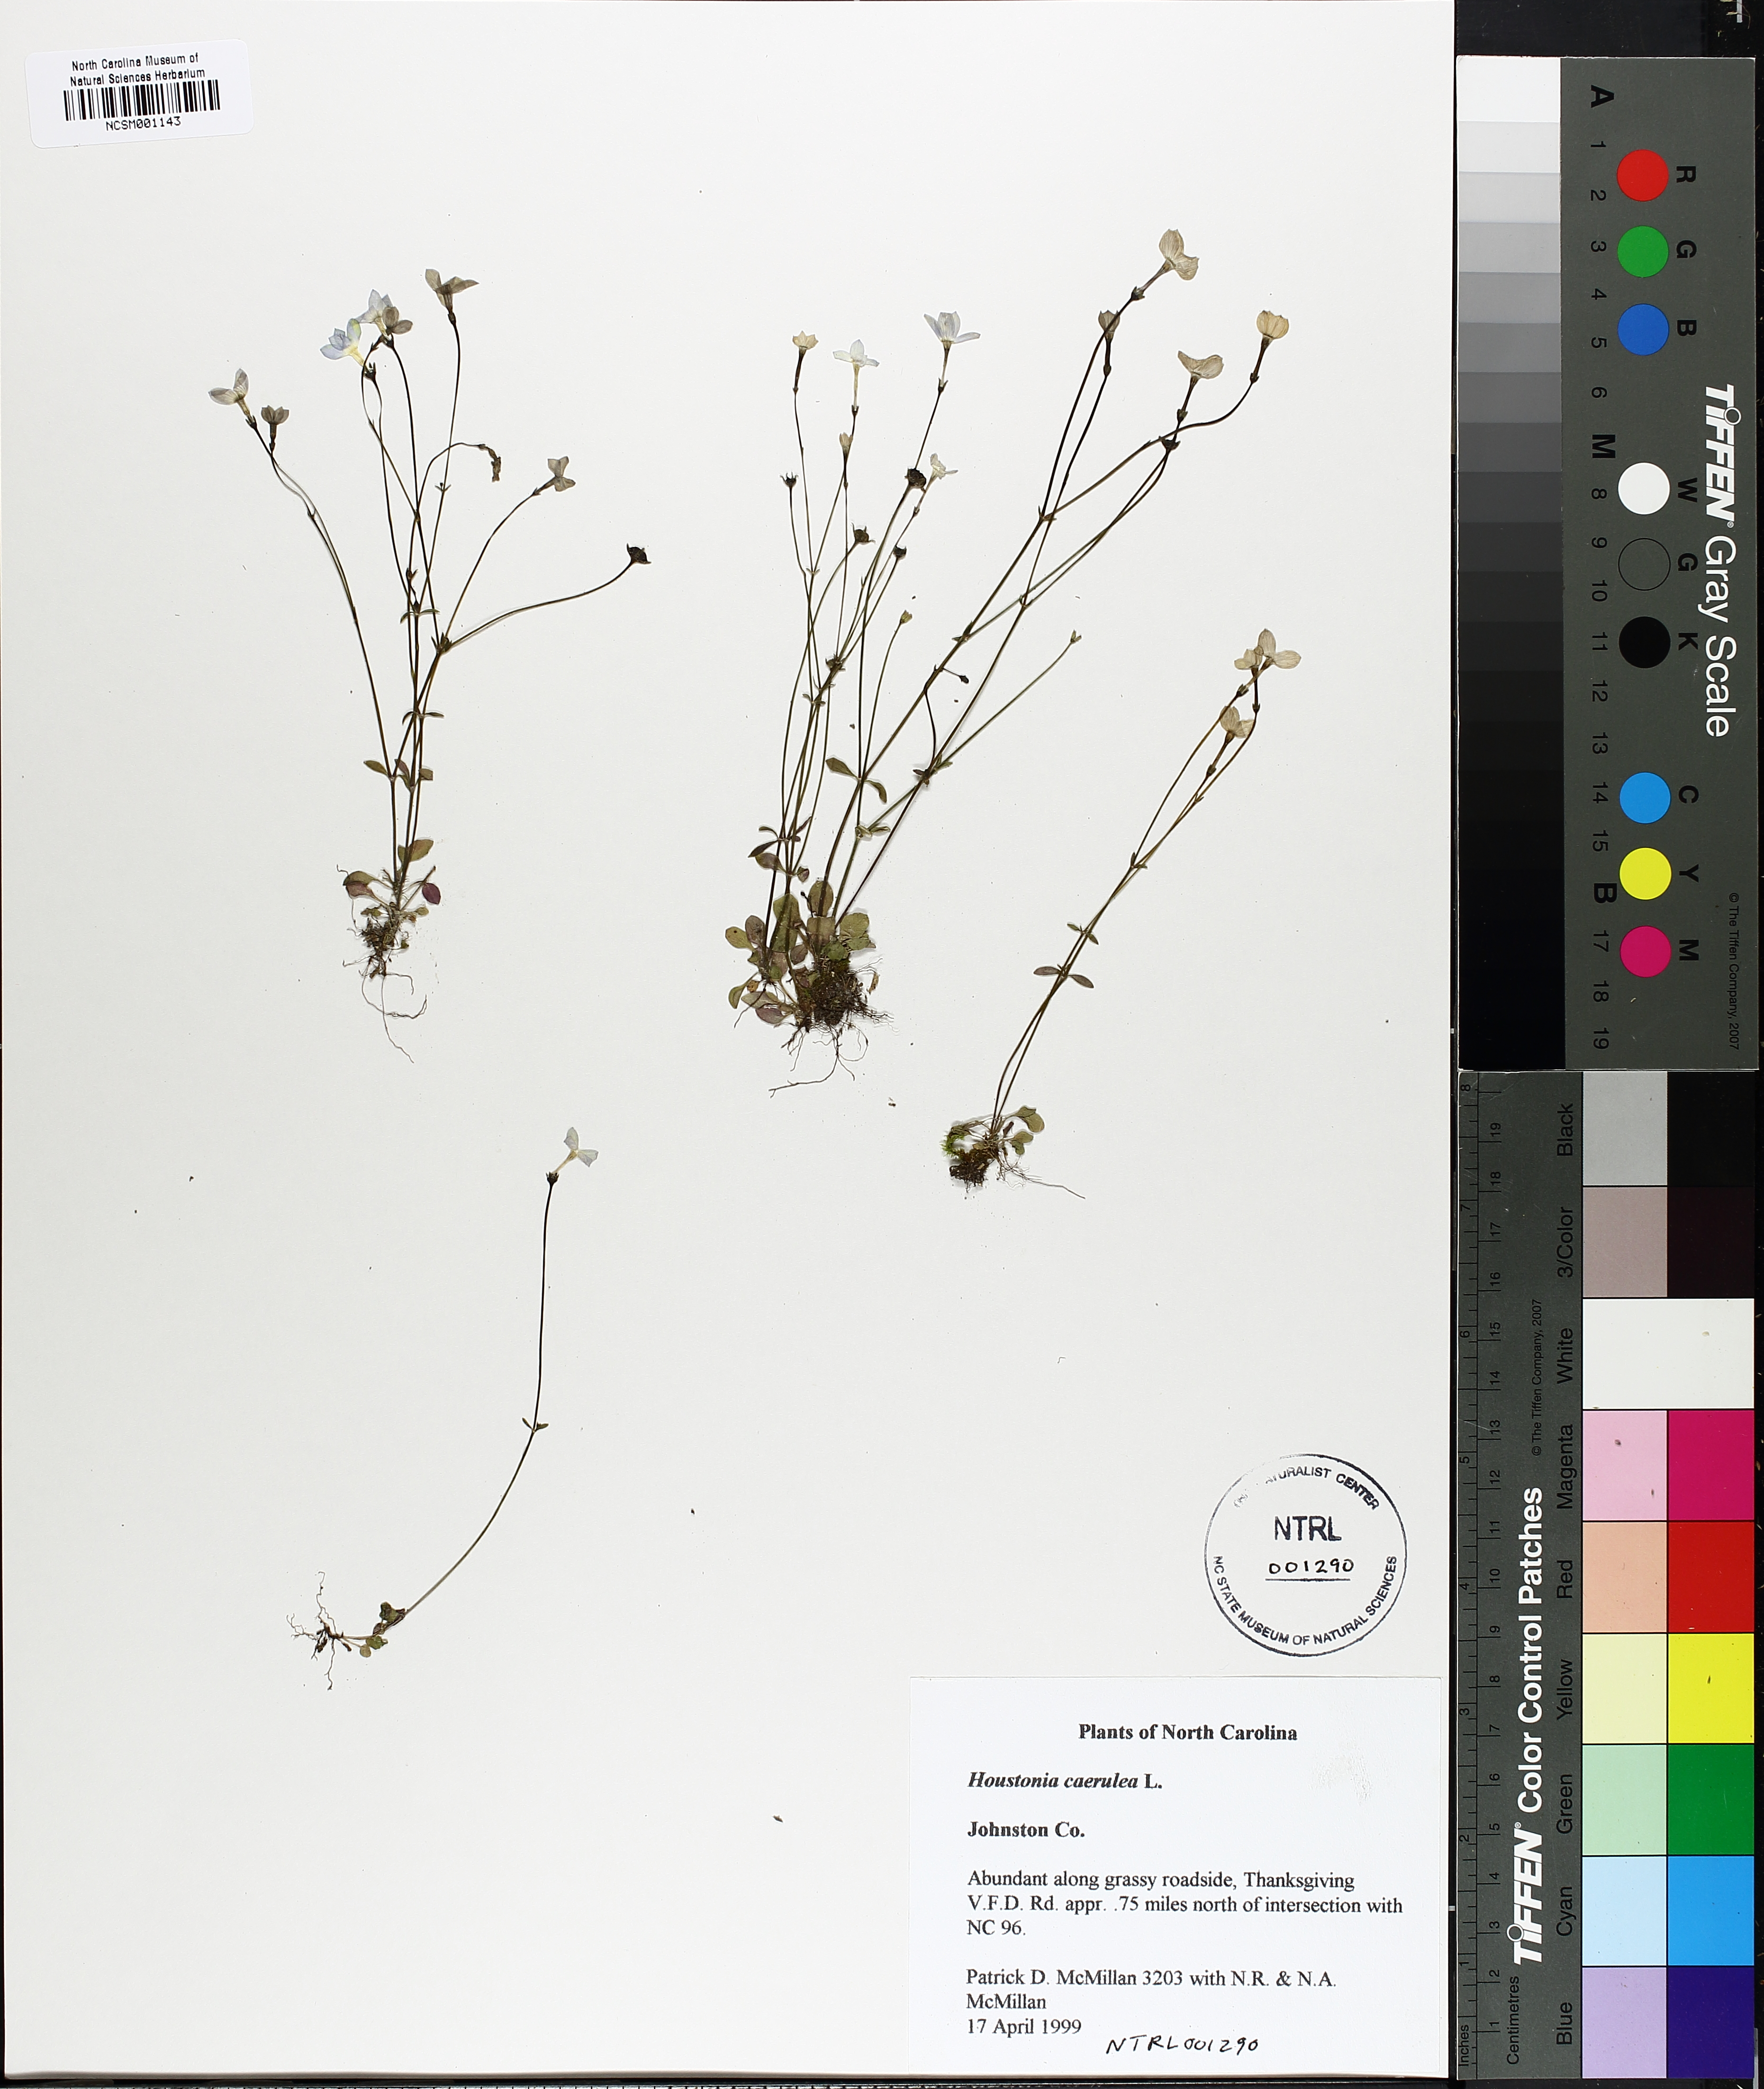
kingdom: Plantae
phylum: Tracheophyta
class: Magnoliopsida
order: Gentianales
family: Rubiaceae
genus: Houstonia
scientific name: Houstonia caerulea
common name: Bluets
